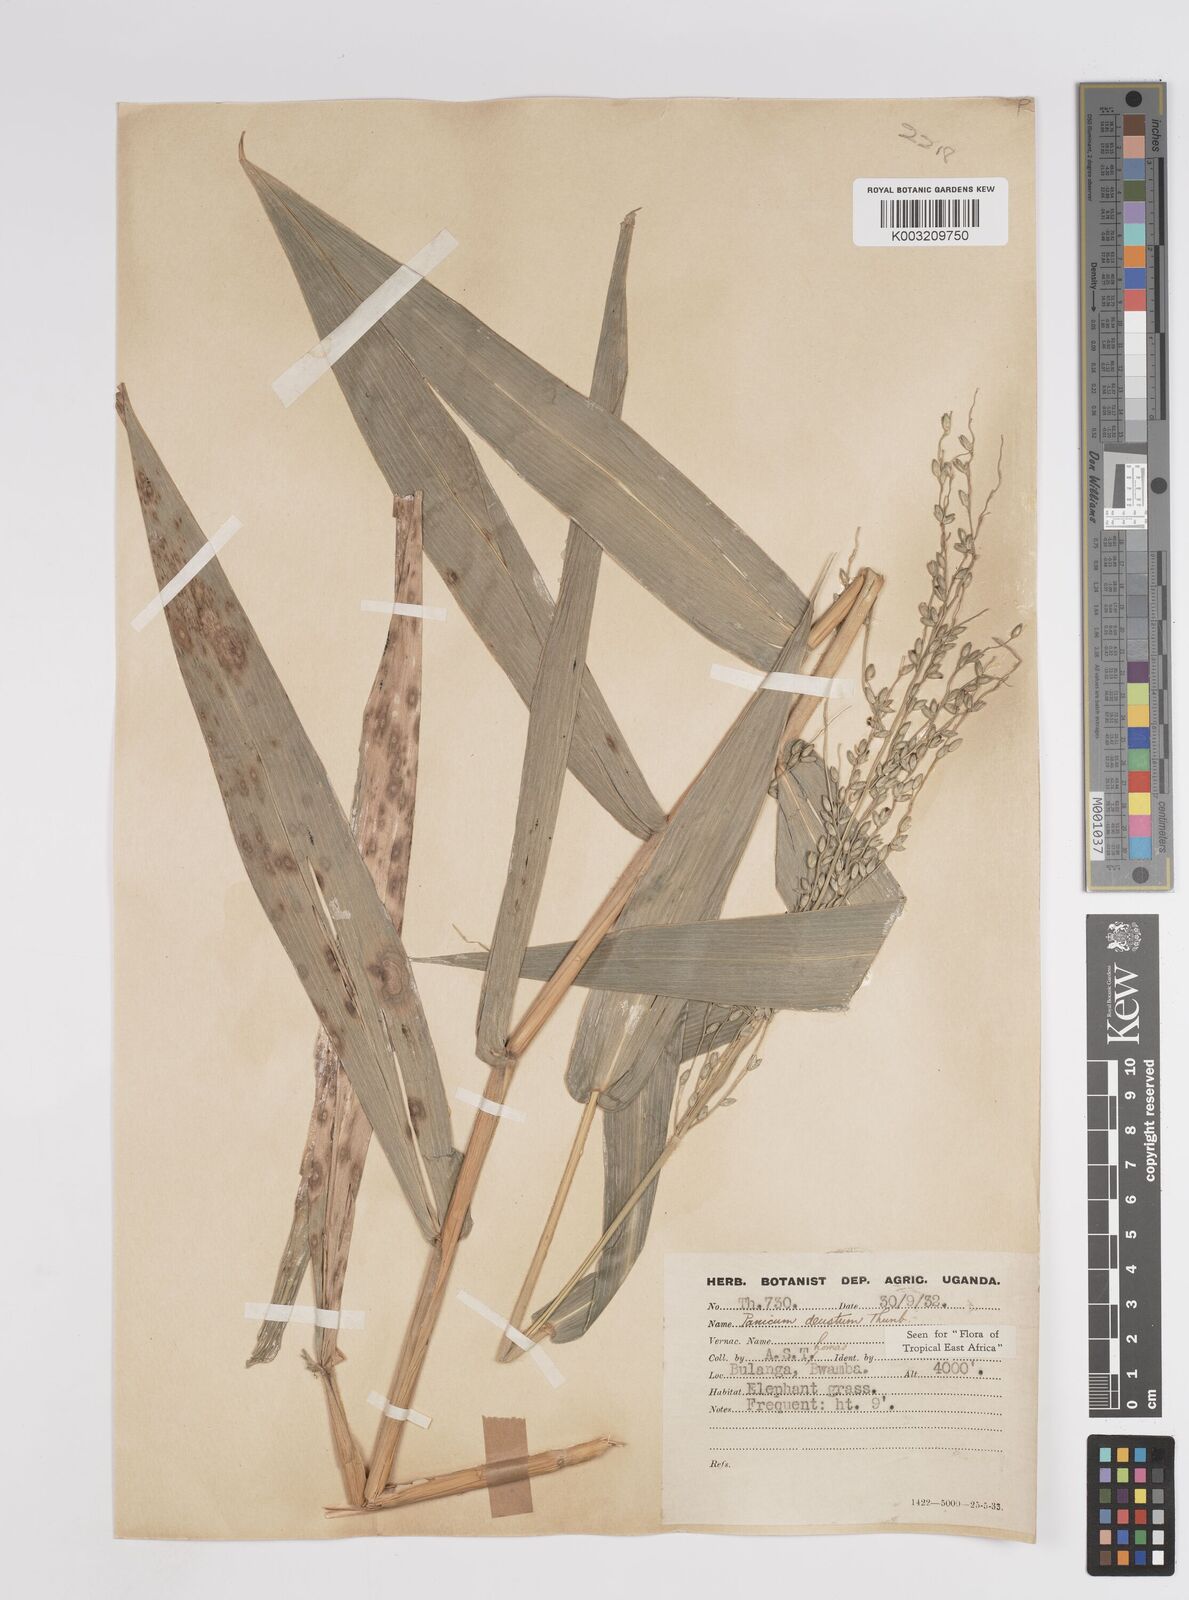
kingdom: Plantae
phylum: Tracheophyta
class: Liliopsida
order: Poales
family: Poaceae
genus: Panicum
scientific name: Panicum
